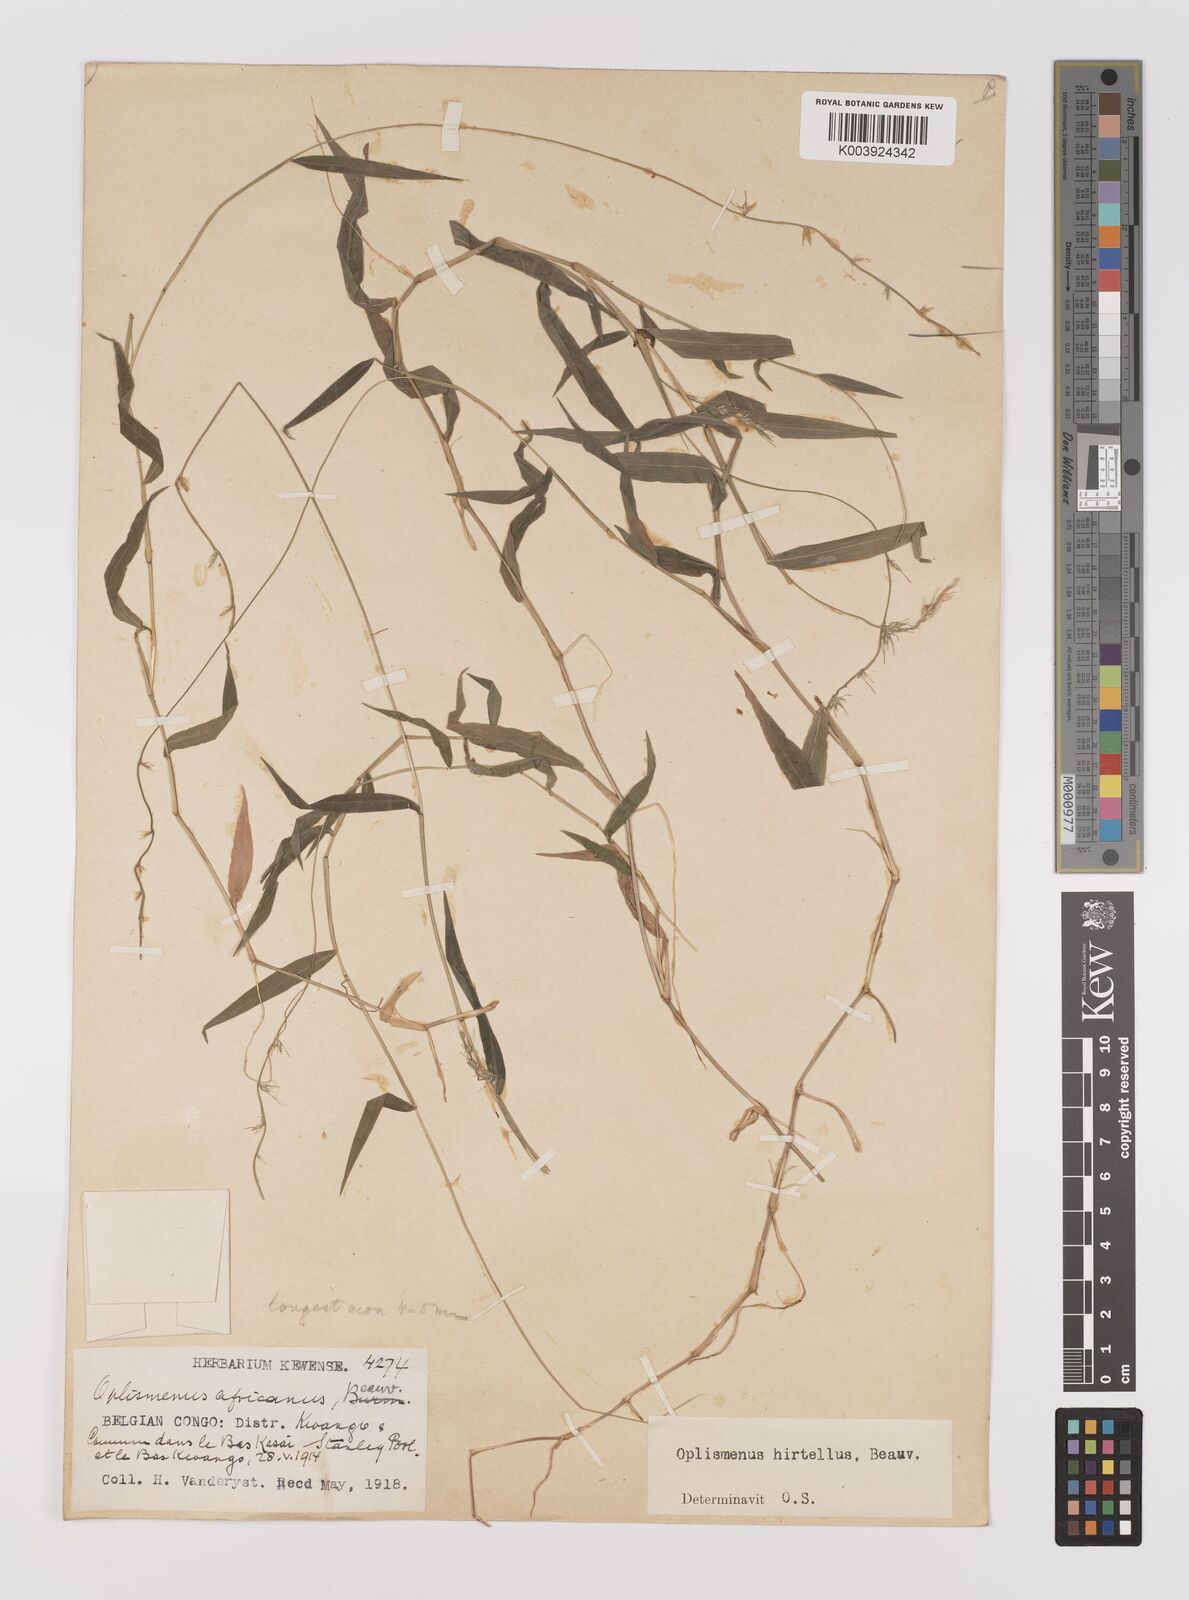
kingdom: Plantae
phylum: Tracheophyta
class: Liliopsida
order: Poales
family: Poaceae
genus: Oplismenus
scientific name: Oplismenus hirtellus
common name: Basketgrass
